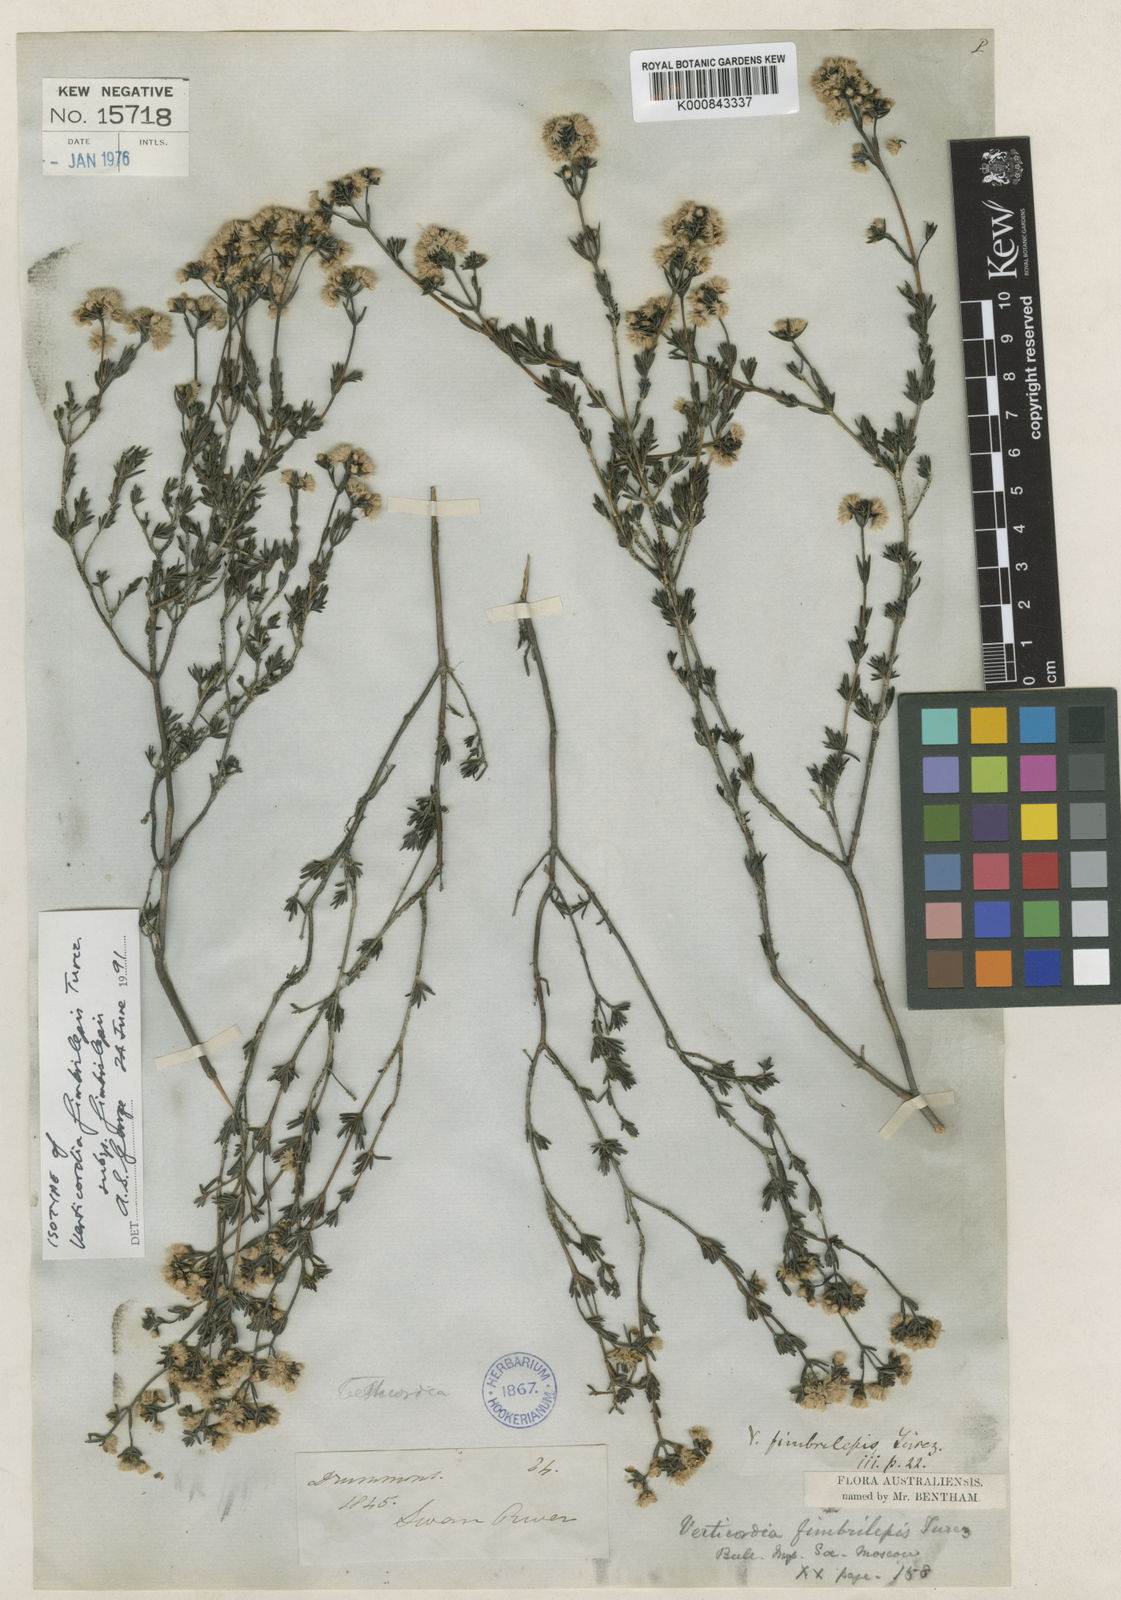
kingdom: Plantae
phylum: Tracheophyta
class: Magnoliopsida
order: Myrtales
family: Myrtaceae
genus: Verticordia
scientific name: Verticordia fimbrilepis
